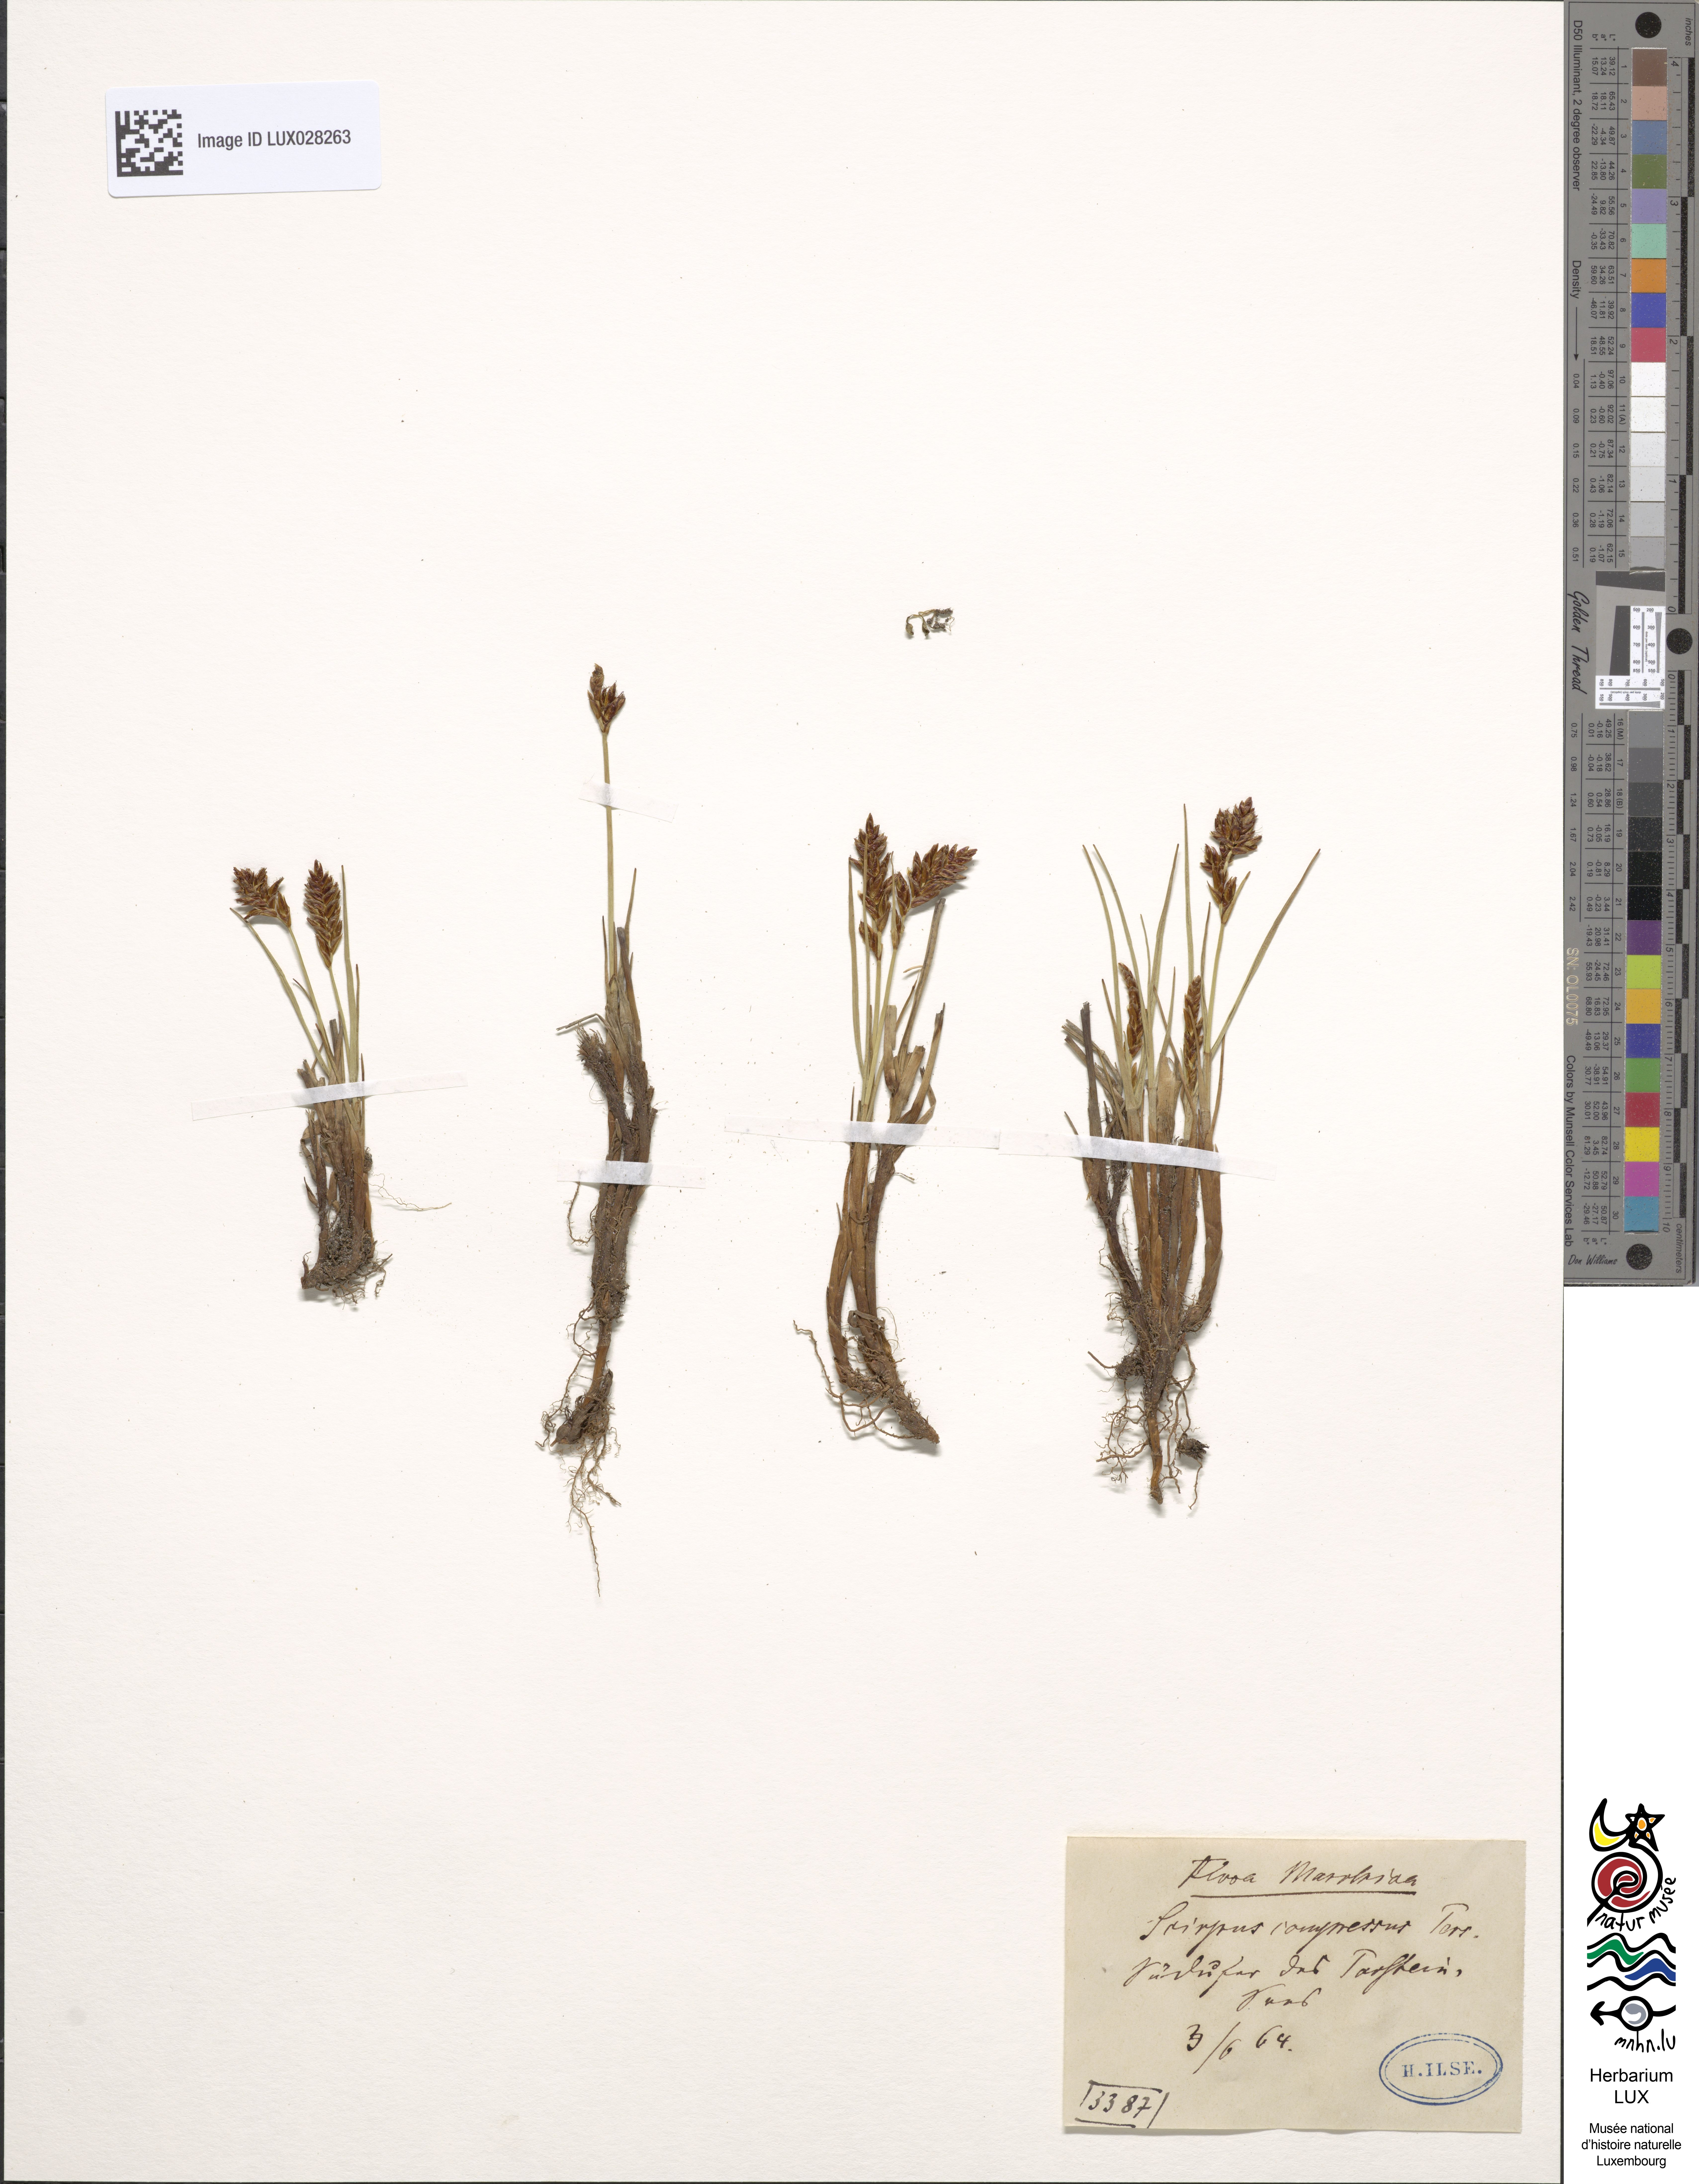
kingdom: Plantae
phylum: Tracheophyta
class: Liliopsida
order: Poales
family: Cyperaceae
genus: Blysmus
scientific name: Blysmus compressus
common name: Flat-sedge
